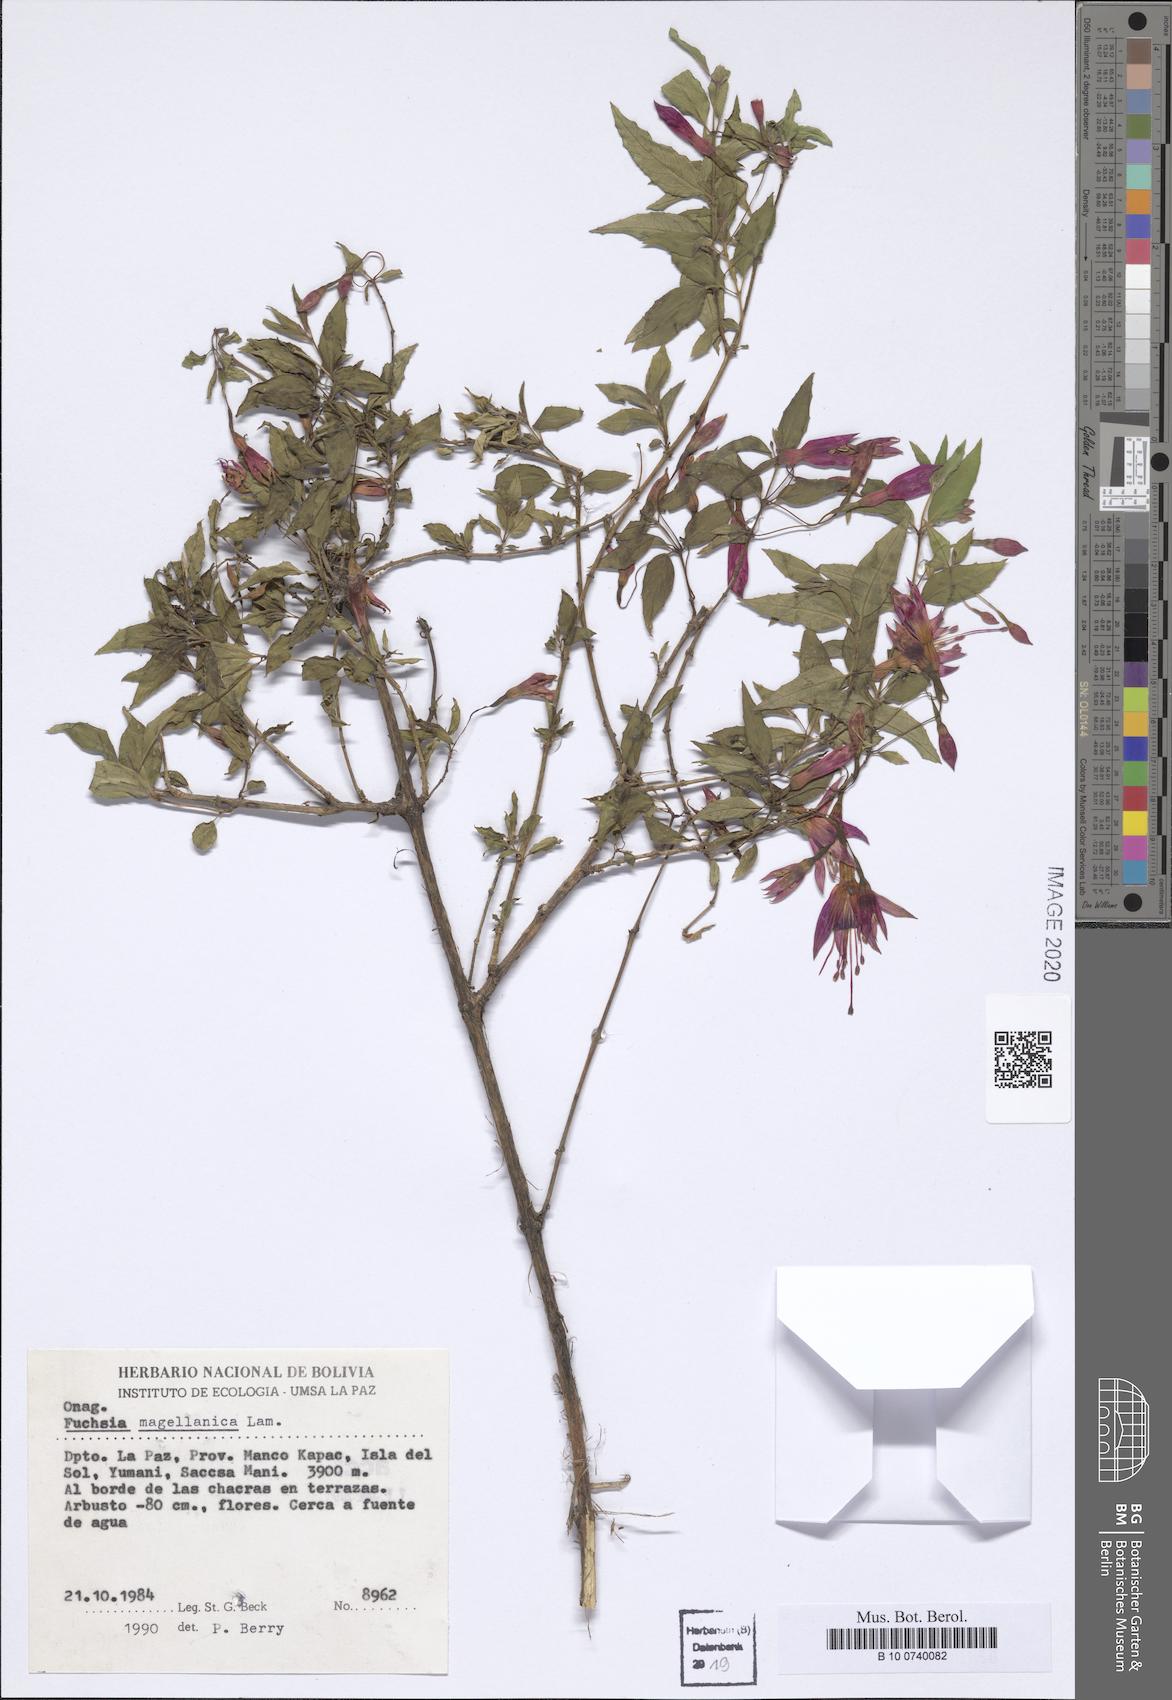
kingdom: Plantae
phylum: Tracheophyta
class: Magnoliopsida
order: Myrtales
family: Onagraceae
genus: Fuchsia
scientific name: Fuchsia magellanica
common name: Hardy fuchsia
